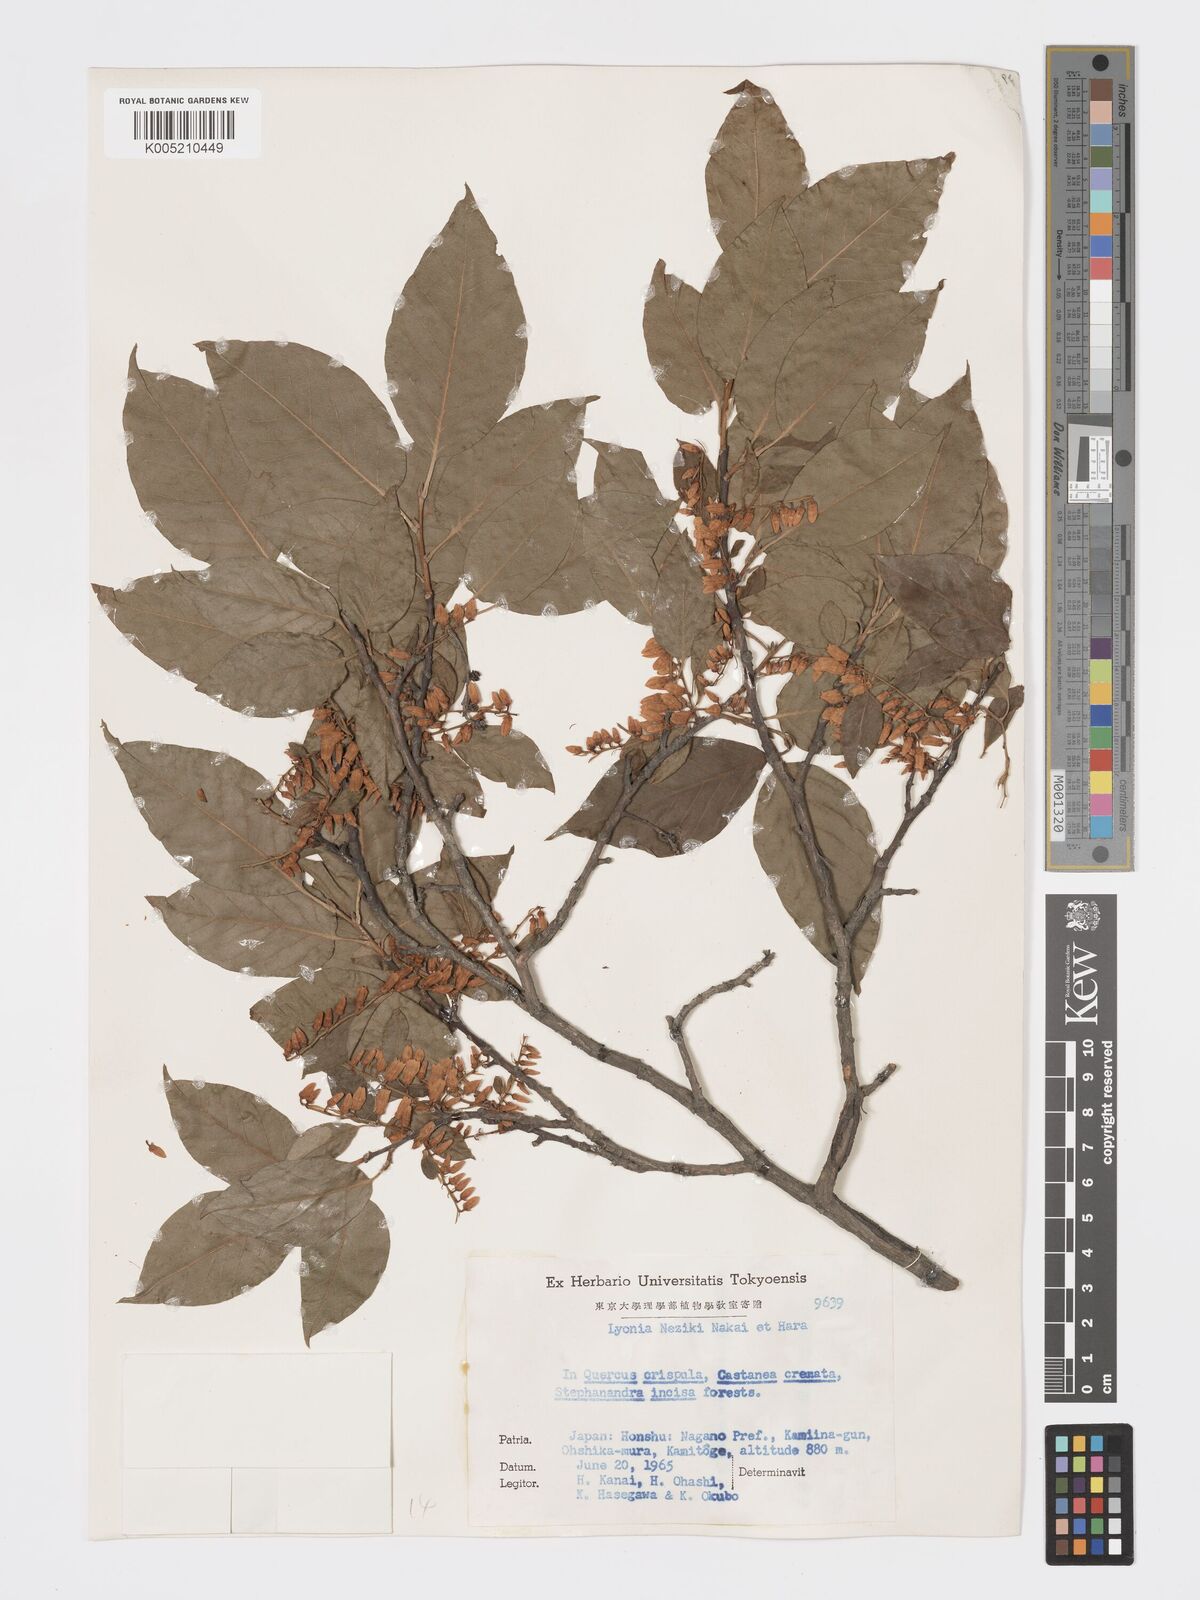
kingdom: Plantae
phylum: Tracheophyta
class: Magnoliopsida
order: Ericales
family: Ericaceae
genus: Lyonia
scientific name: Lyonia ovalifolia
